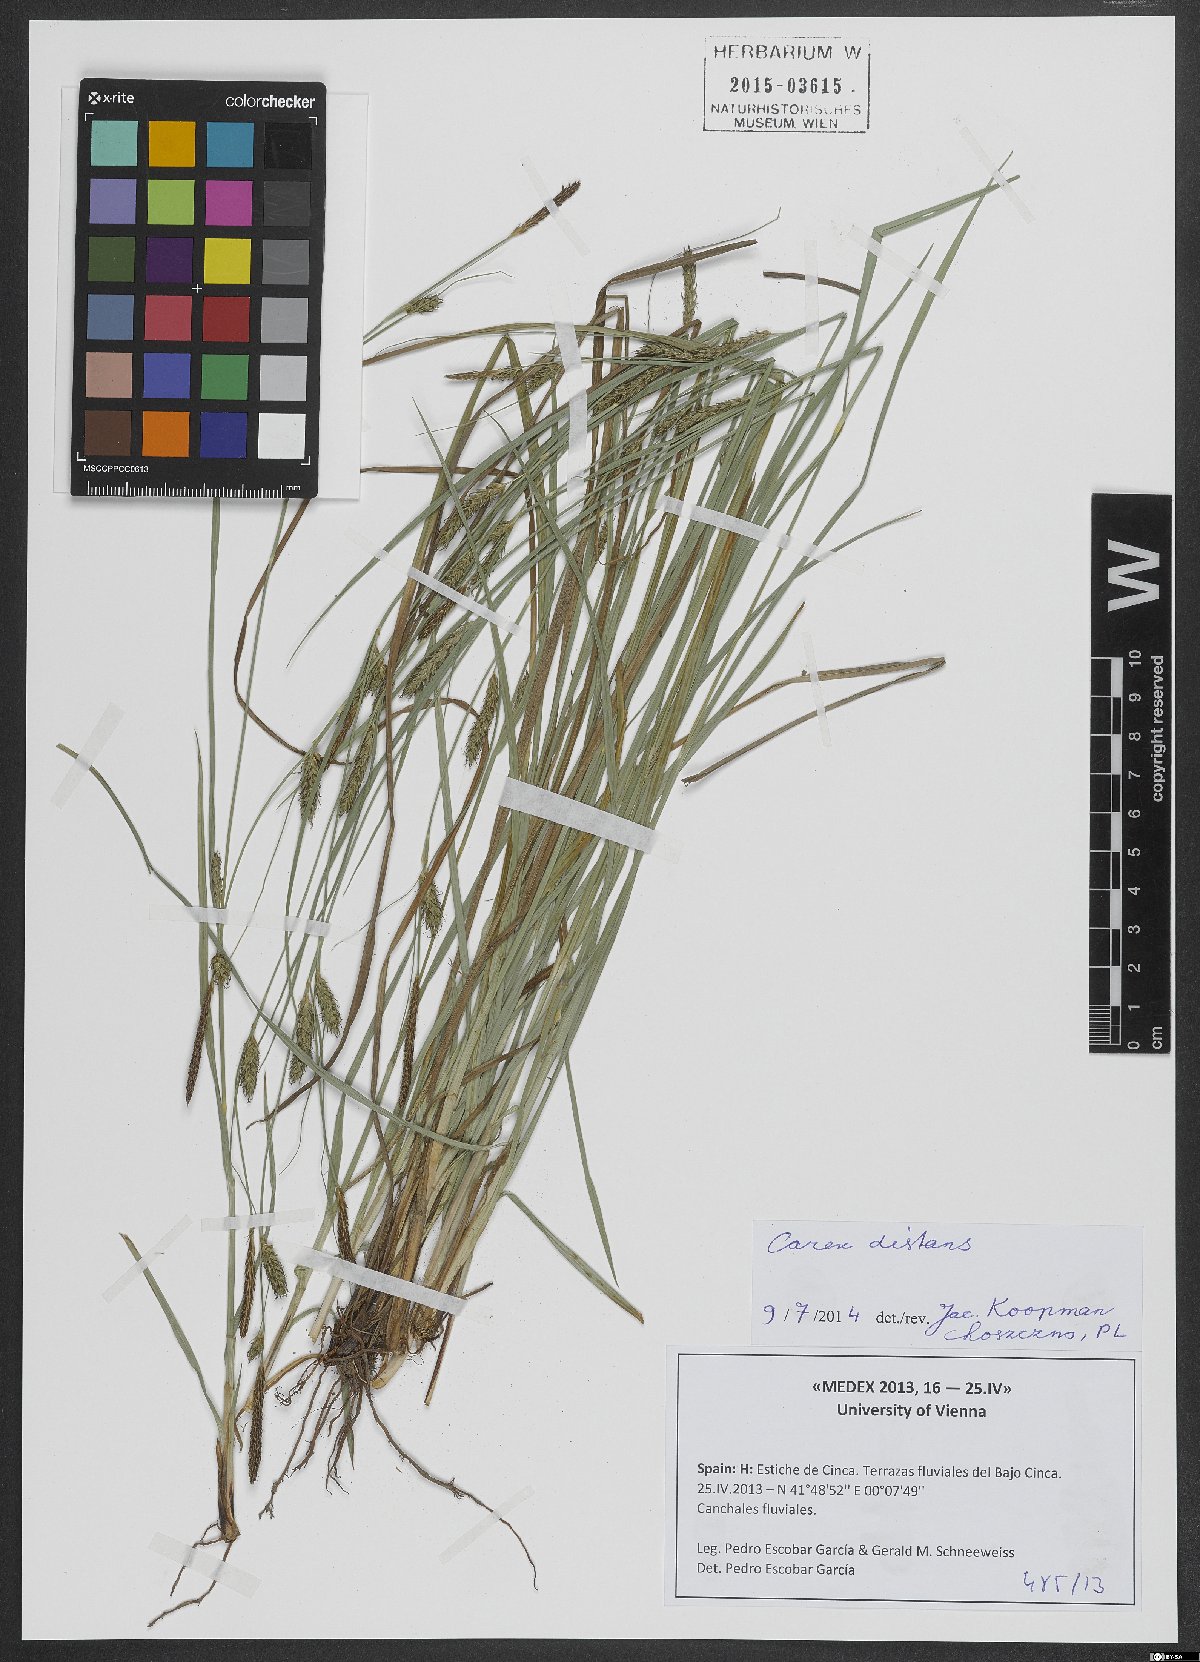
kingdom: Plantae
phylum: Tracheophyta
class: Liliopsida
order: Poales
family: Cyperaceae
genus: Carex
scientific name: Carex distans
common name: Distant sedge
